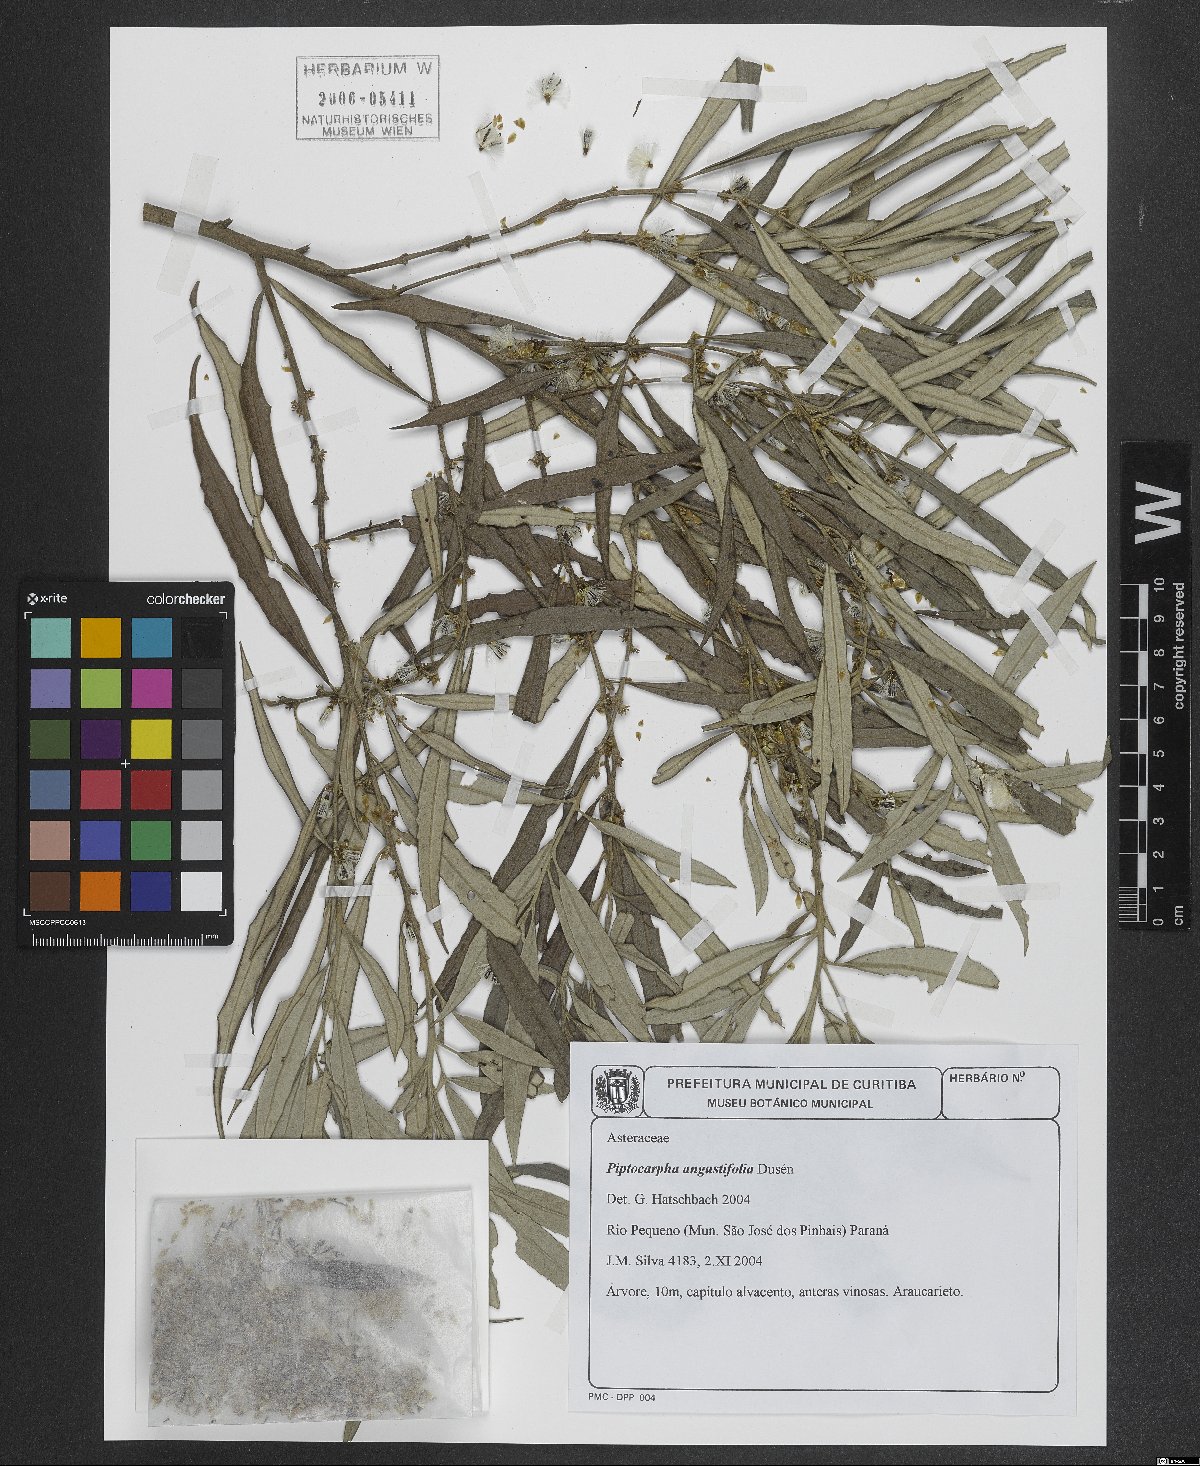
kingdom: Plantae
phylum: Tracheophyta
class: Magnoliopsida
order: Asterales
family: Asteraceae
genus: Piptocarpha
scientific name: Piptocarpha angustifolia
